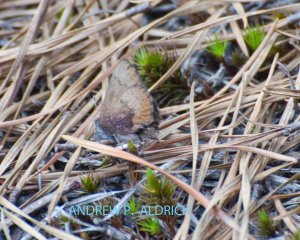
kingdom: Animalia
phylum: Arthropoda
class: Insecta
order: Lepidoptera
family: Lycaenidae
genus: Incisalia
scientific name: Incisalia irioides
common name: Brown Elfin
